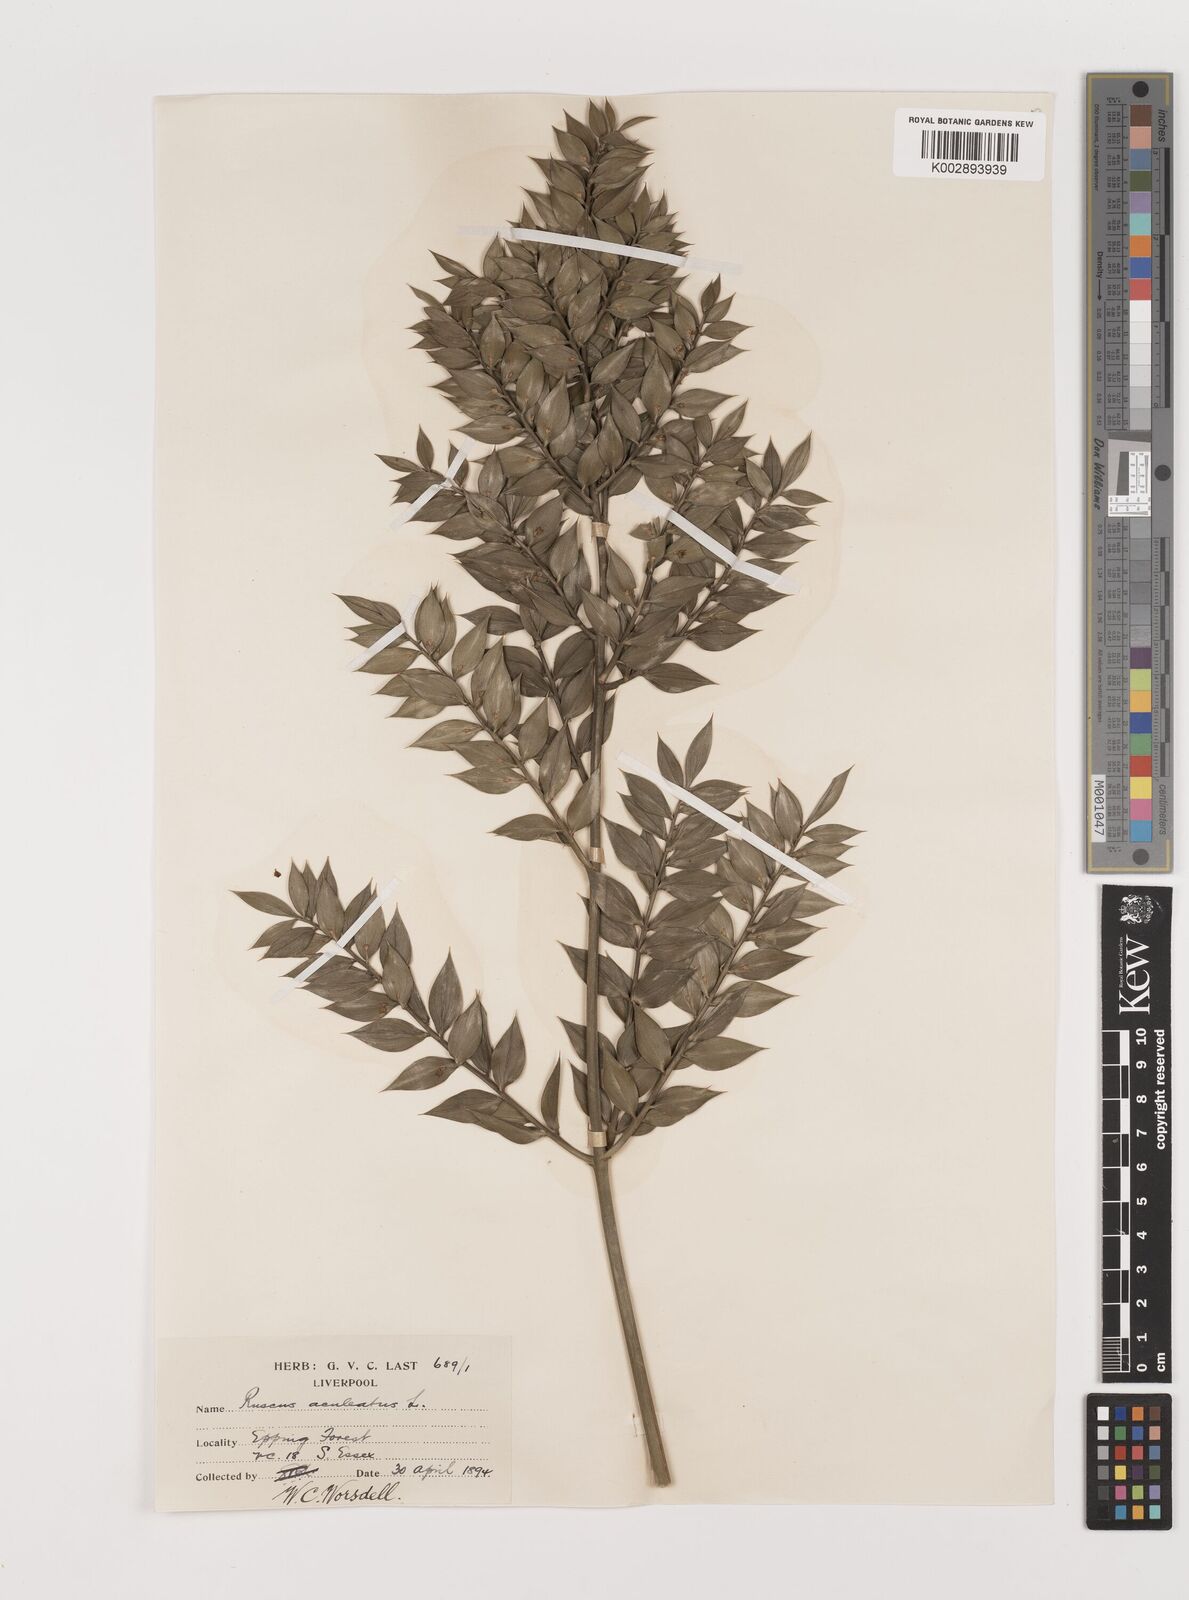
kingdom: Plantae
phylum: Tracheophyta
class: Liliopsida
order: Asparagales
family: Asparagaceae
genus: Ruscus
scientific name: Ruscus aculeatus
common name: Butcher's-broom
